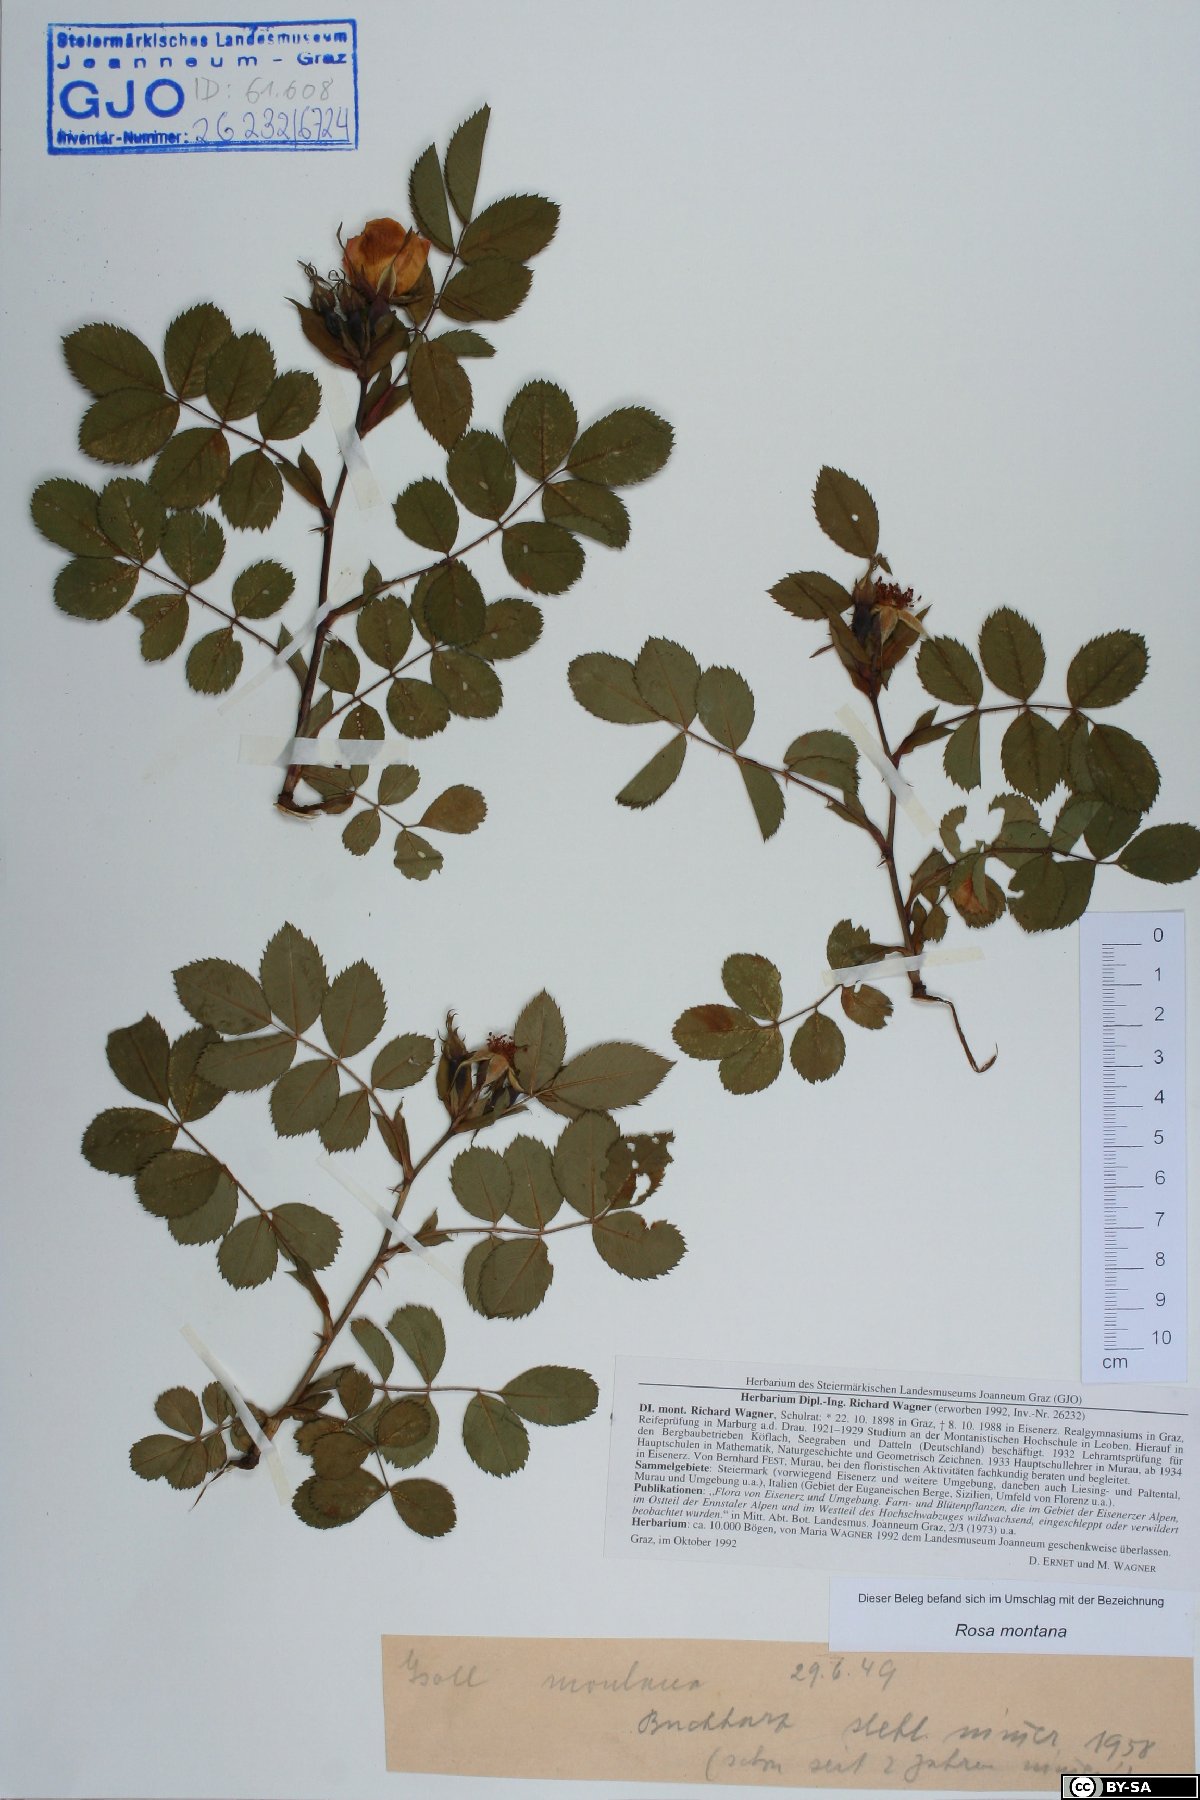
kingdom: Plantae
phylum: Tracheophyta
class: Magnoliopsida
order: Rosales
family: Rosaceae
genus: Rosa
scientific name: Rosa montana
